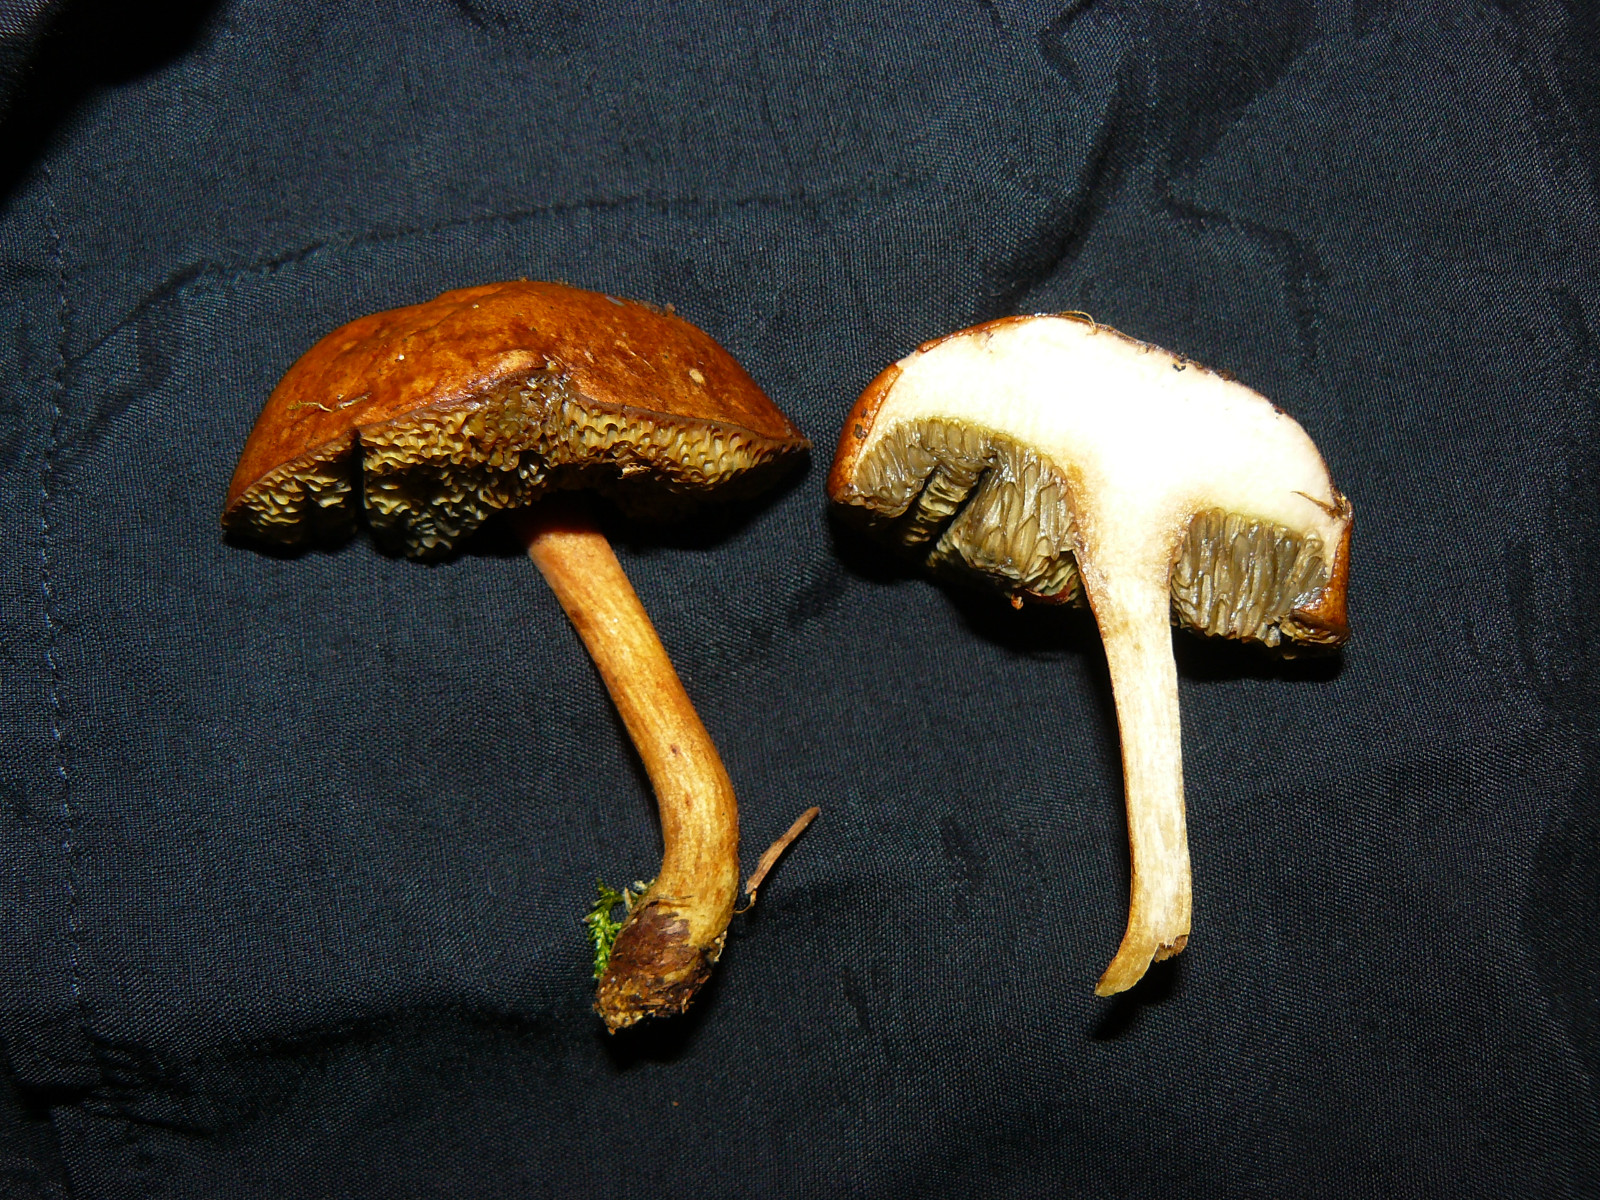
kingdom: Fungi
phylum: Basidiomycota
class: Agaricomycetes
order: Boletales
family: Boletaceae
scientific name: Boletaceae
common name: rørhatfamilien
